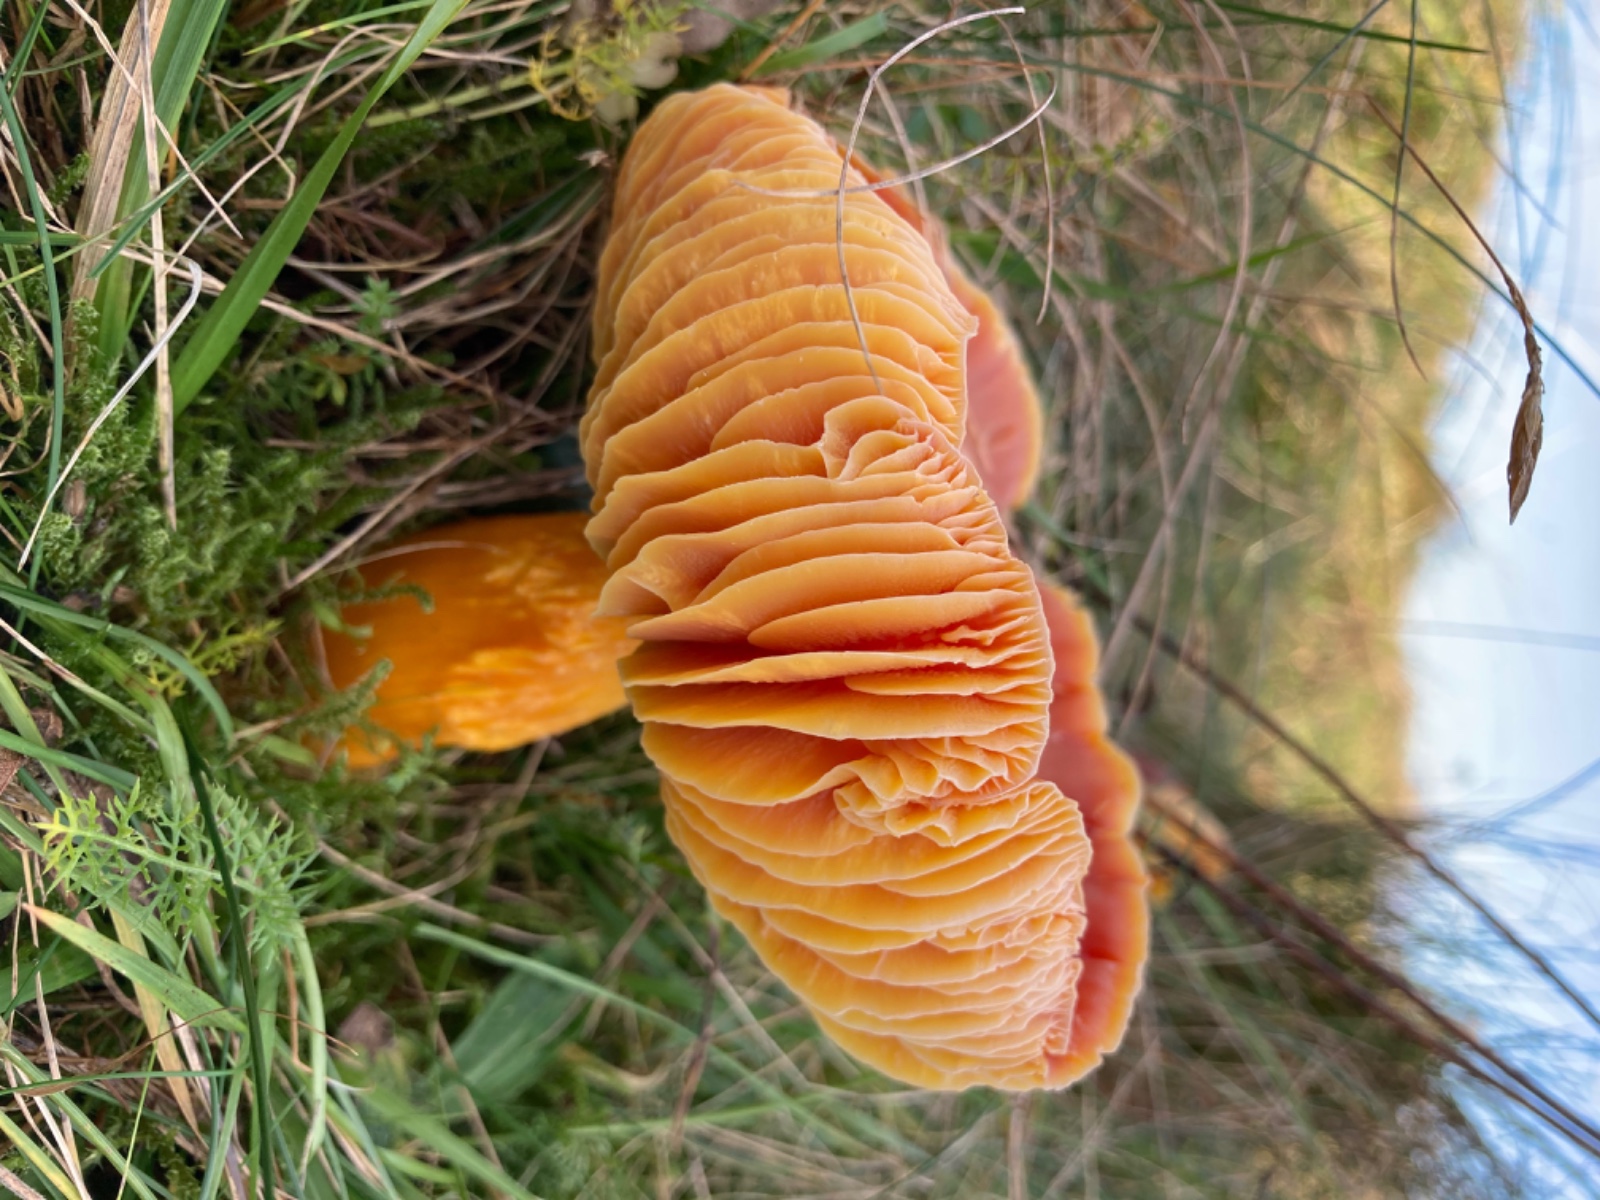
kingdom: Fungi
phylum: Basidiomycota
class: Agaricomycetes
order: Agaricales
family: Hygrophoraceae
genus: Hygrocybe
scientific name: Hygrocybe punicea
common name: skarlagen-vokshat
